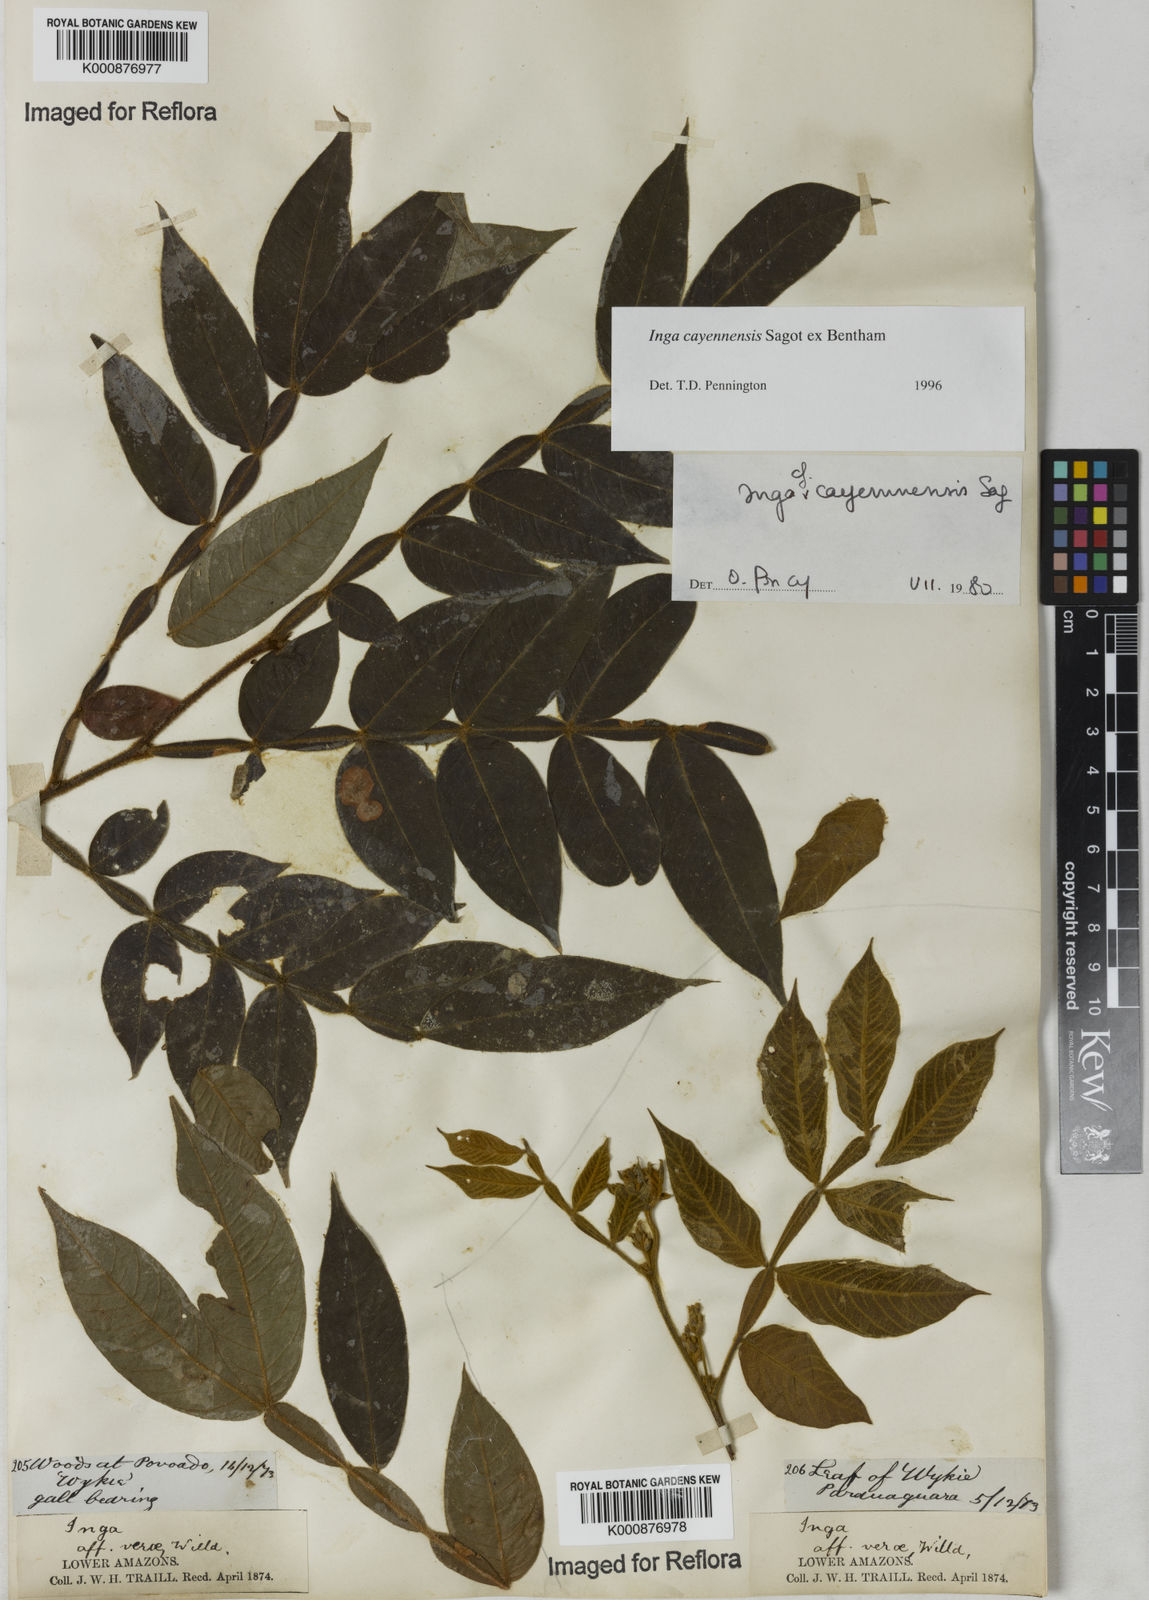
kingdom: Plantae
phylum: Tracheophyta
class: Magnoliopsida
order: Fabales
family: Fabaceae
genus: Inga
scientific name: Inga cayennensis
